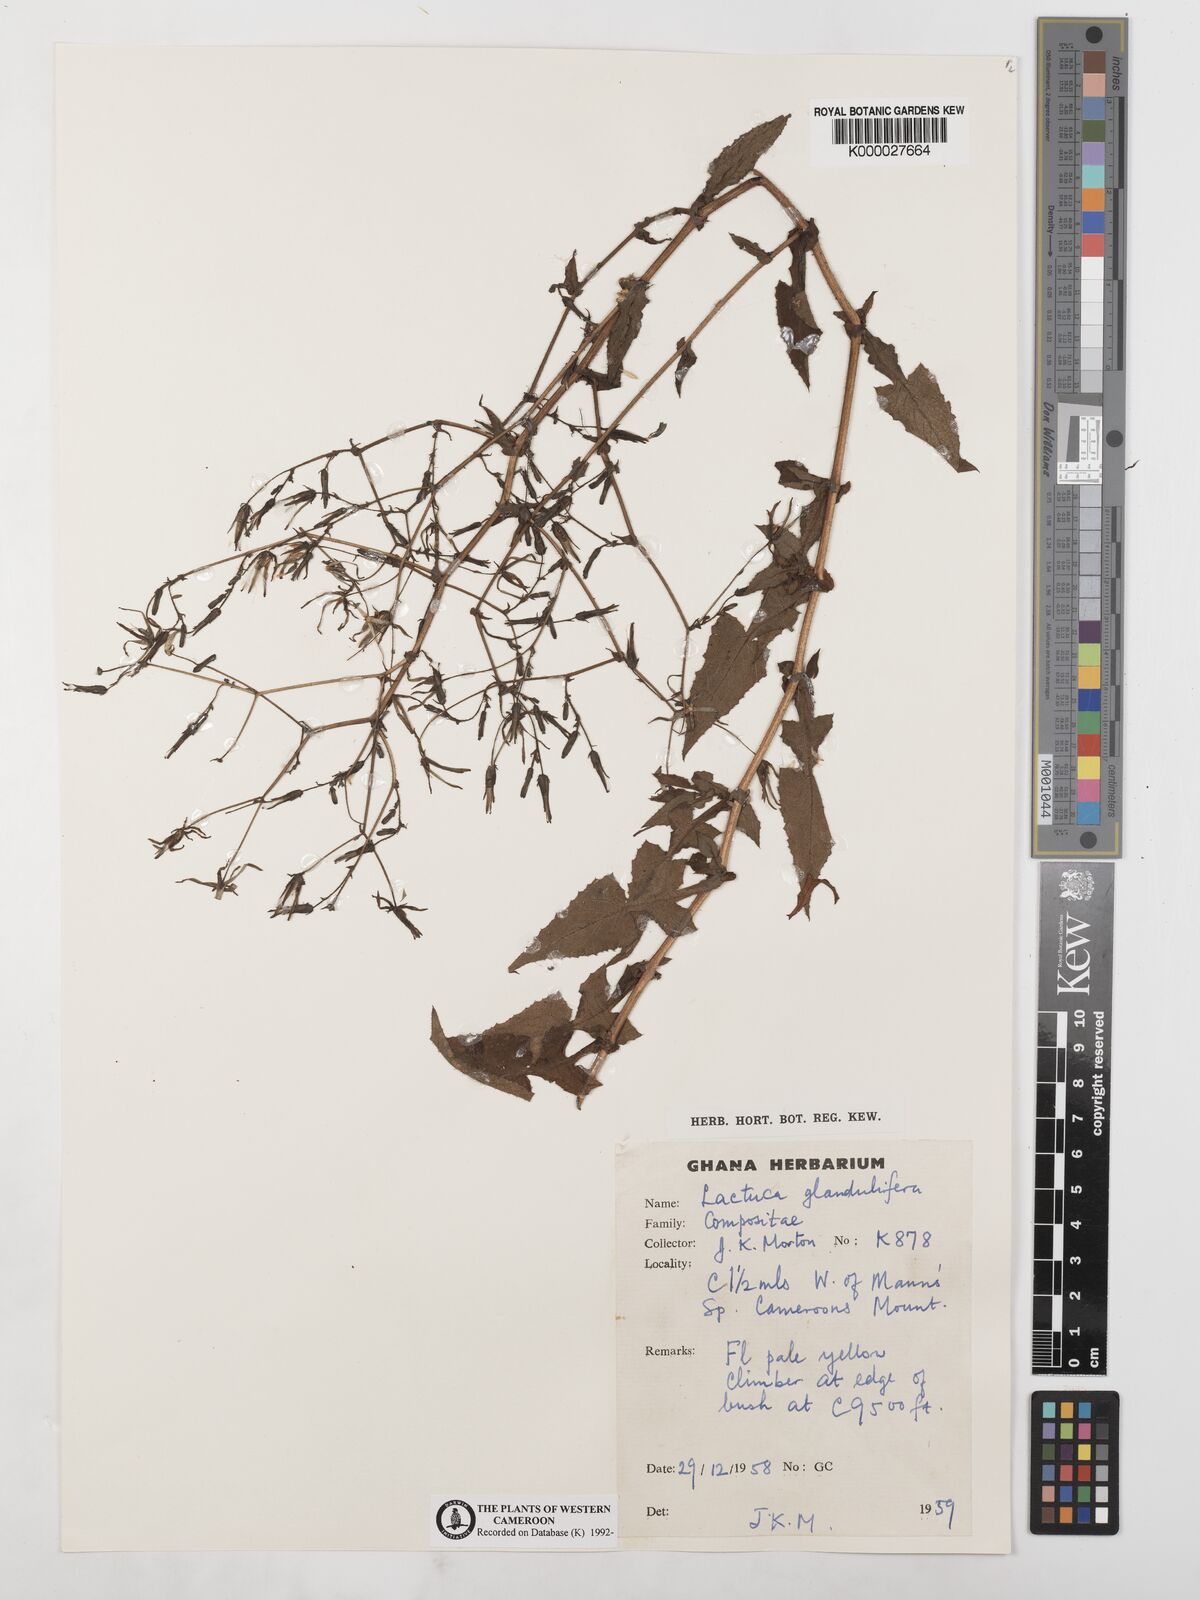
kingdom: Plantae
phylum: Tracheophyta
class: Magnoliopsida
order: Asterales
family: Asteraceae
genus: Lactuca
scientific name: Lactuca glandulifera
